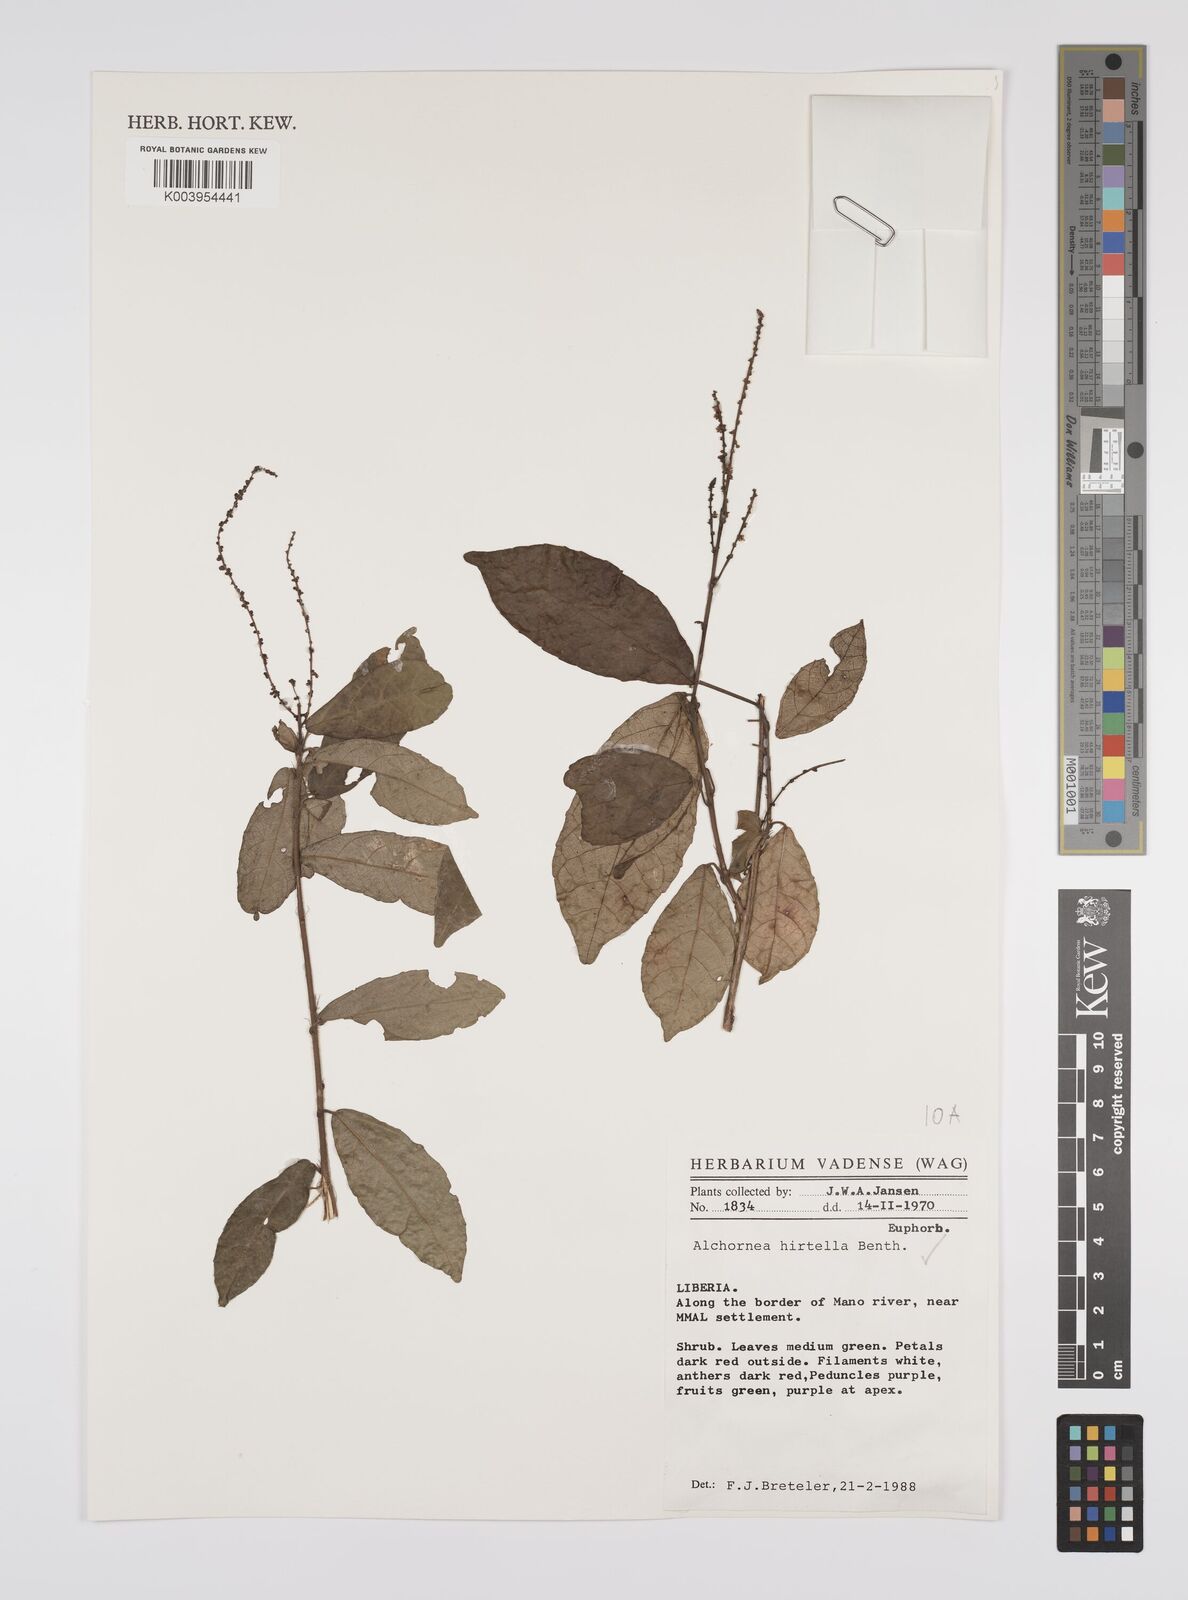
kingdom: Plantae
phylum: Tracheophyta
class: Magnoliopsida
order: Malpighiales
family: Euphorbiaceae
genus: Alchornea
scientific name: Alchornea hirtella
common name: Forest bead-string
